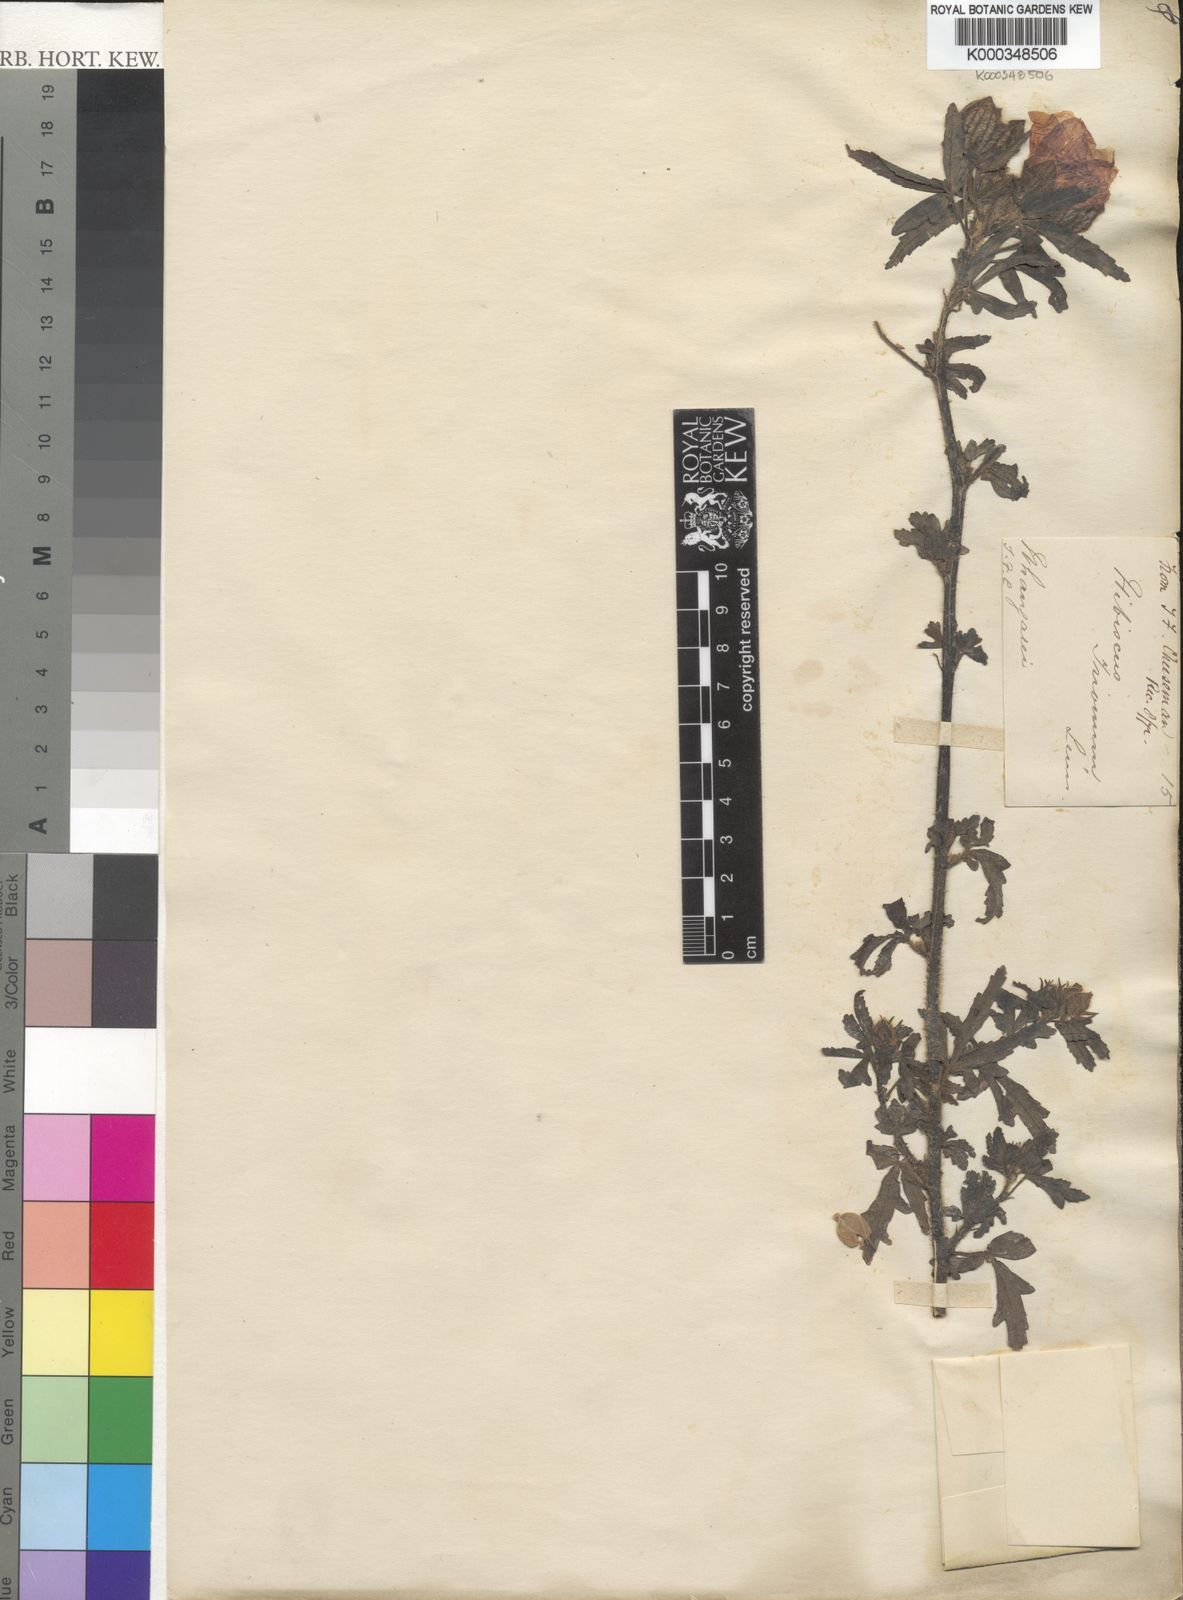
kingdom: Plantae
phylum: Tracheophyta
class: Magnoliopsida
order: Malvales
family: Malvaceae
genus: Hibiscus
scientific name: Hibiscus trionum
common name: Bladder ketmia
